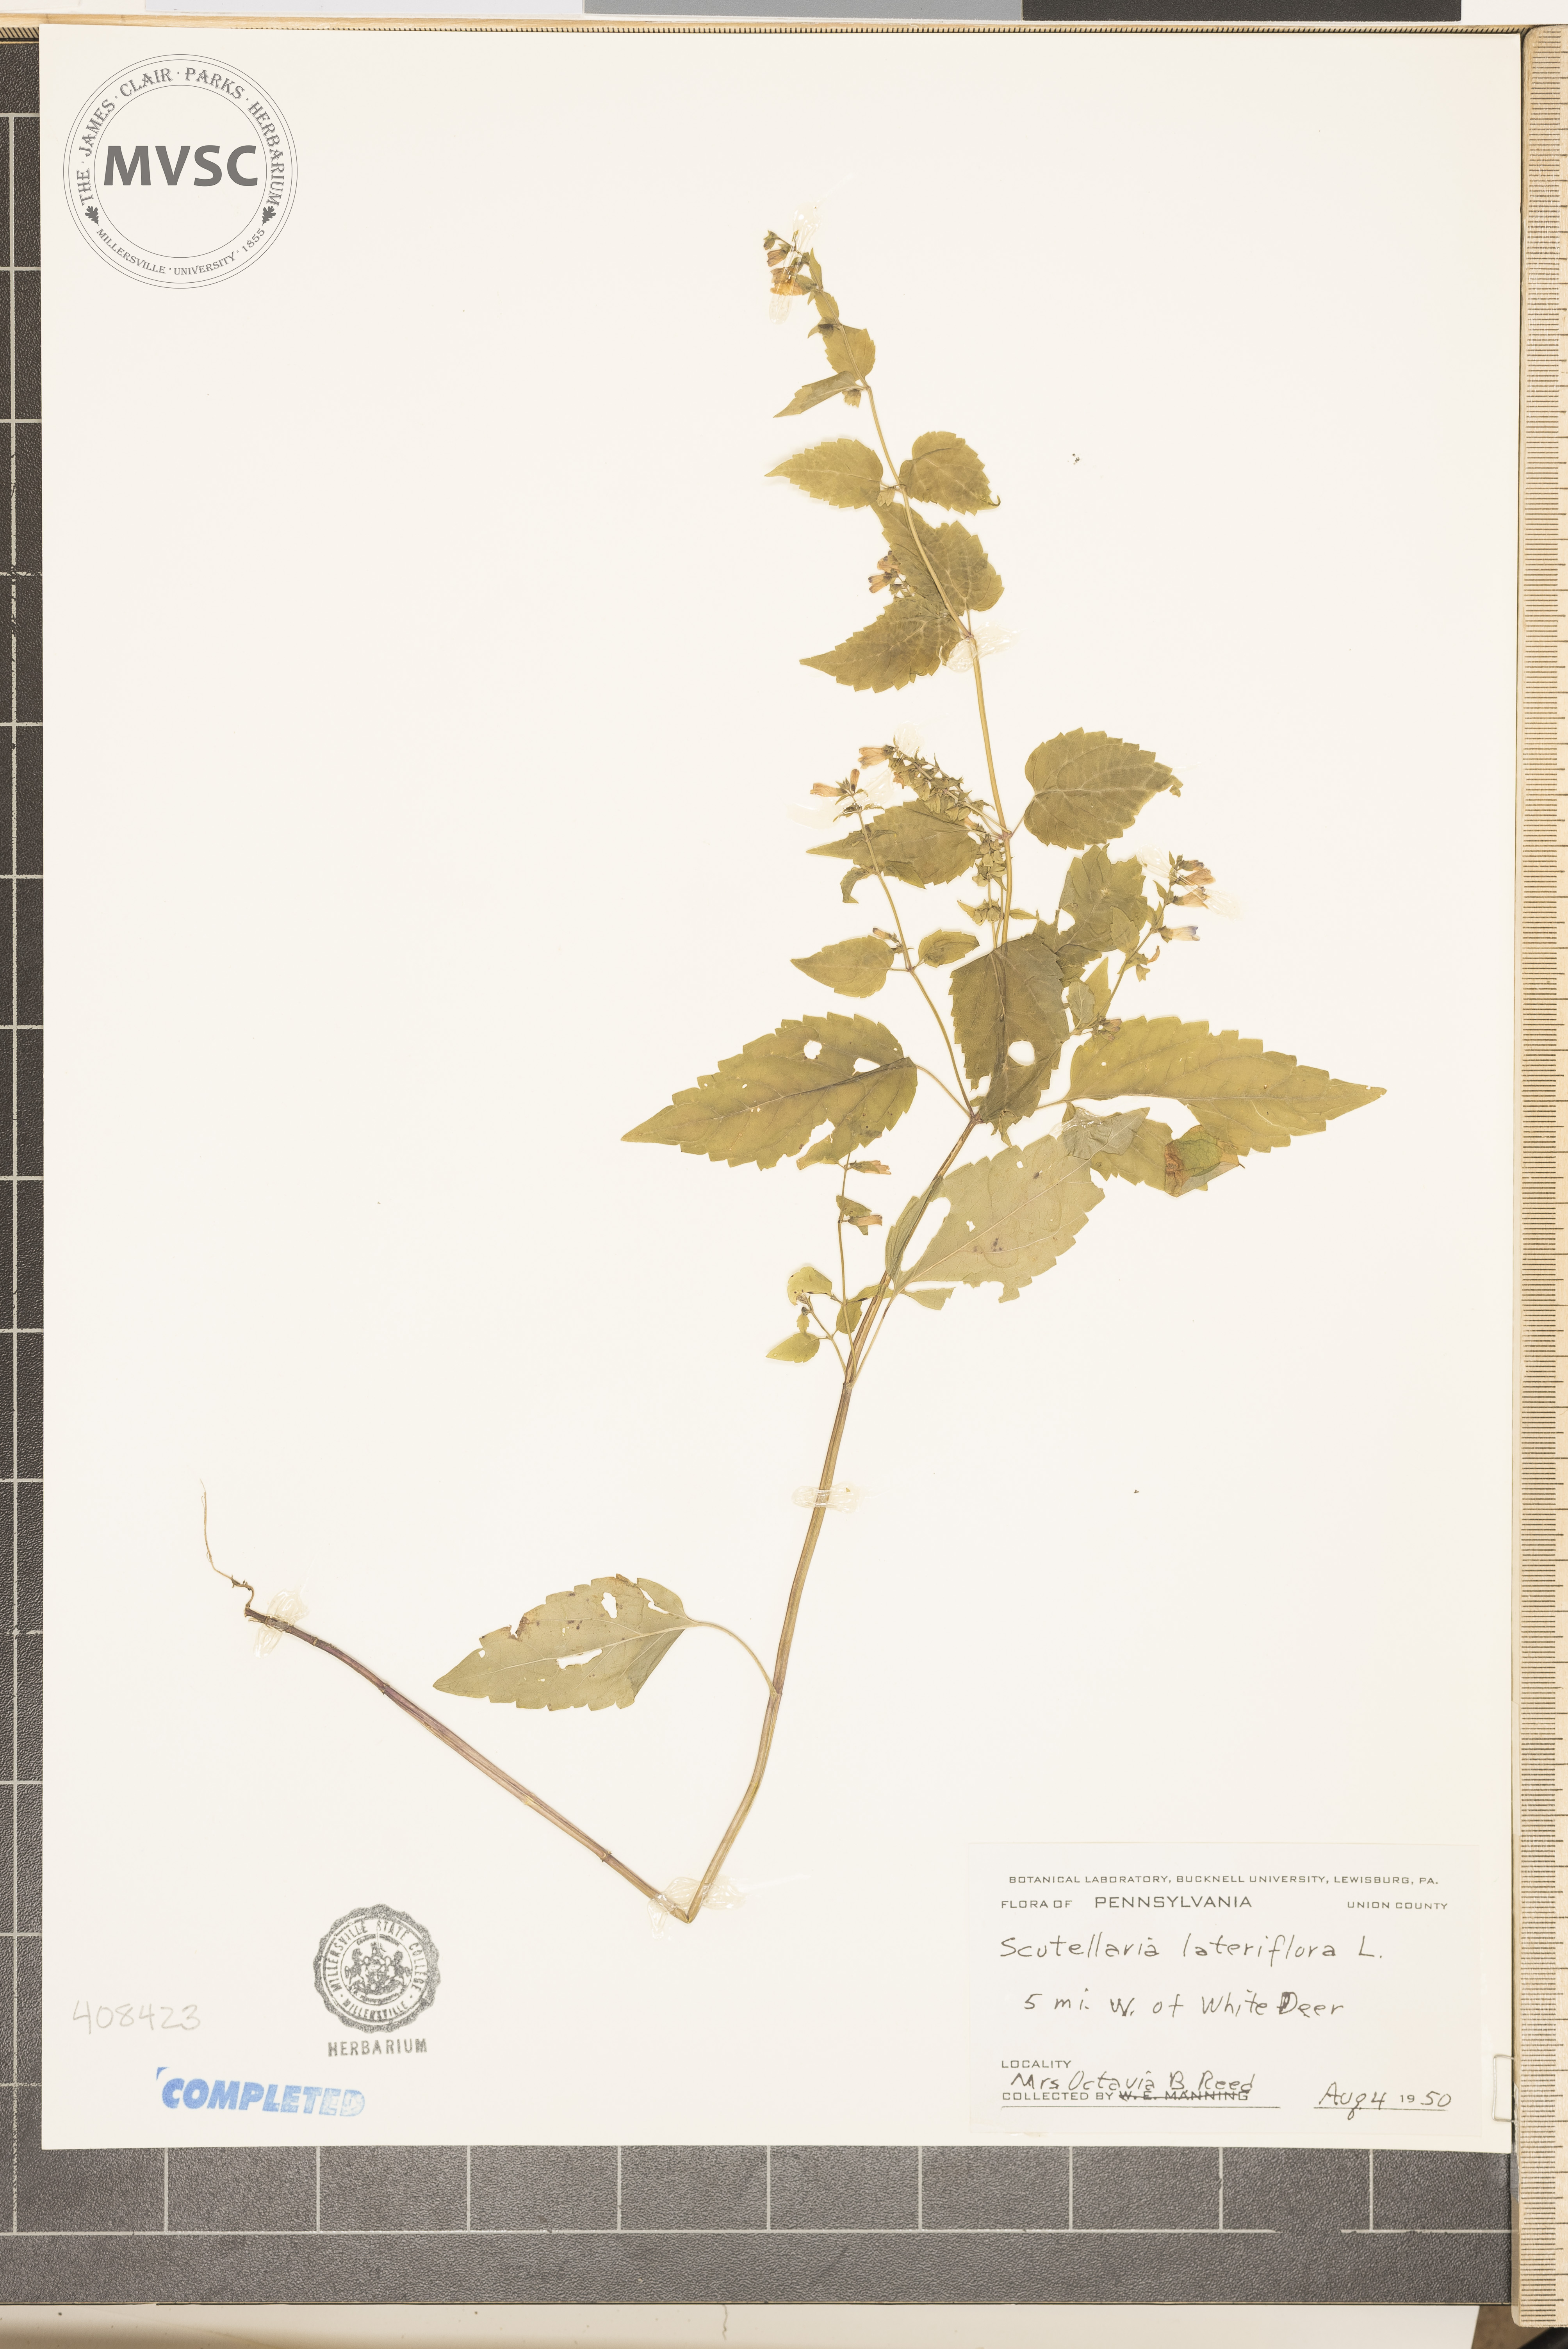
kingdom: Plantae
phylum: Tracheophyta
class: Magnoliopsida
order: Lamiales
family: Lamiaceae
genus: Scutellaria
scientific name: Scutellaria lateriflora
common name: Blue skullcap
